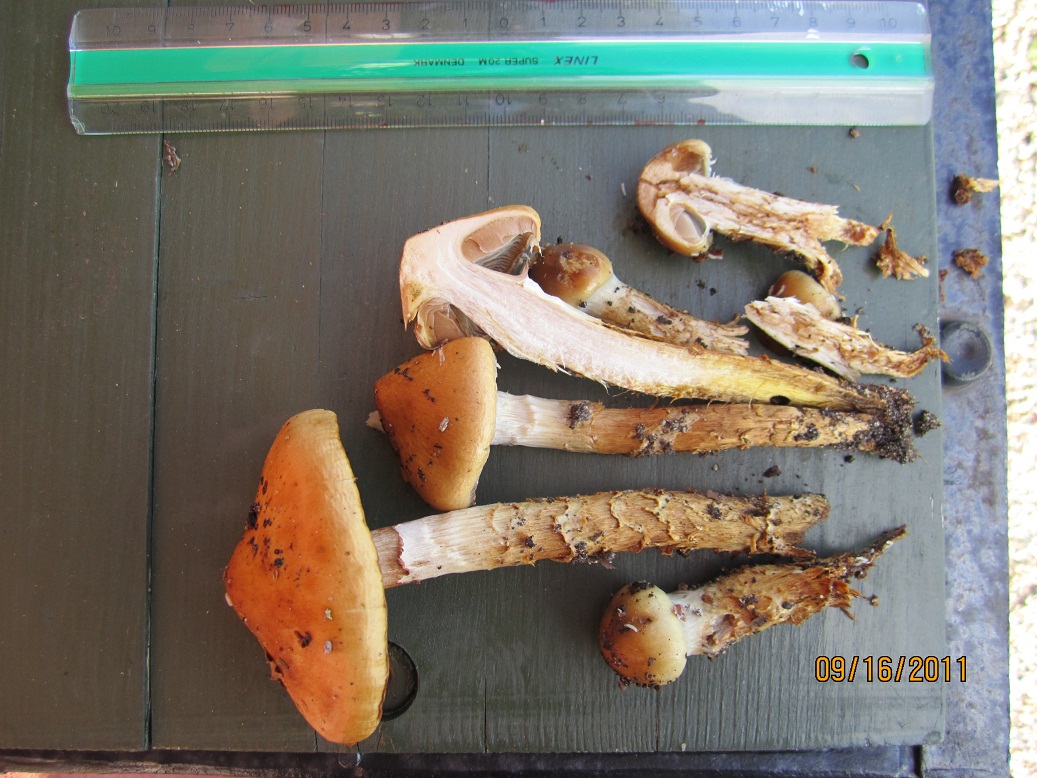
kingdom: Fungi
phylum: Basidiomycota
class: Agaricomycetes
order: Agaricales
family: Cortinariaceae
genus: Cortinarius
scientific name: Cortinarius trivialis
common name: brunslimet slørhat
